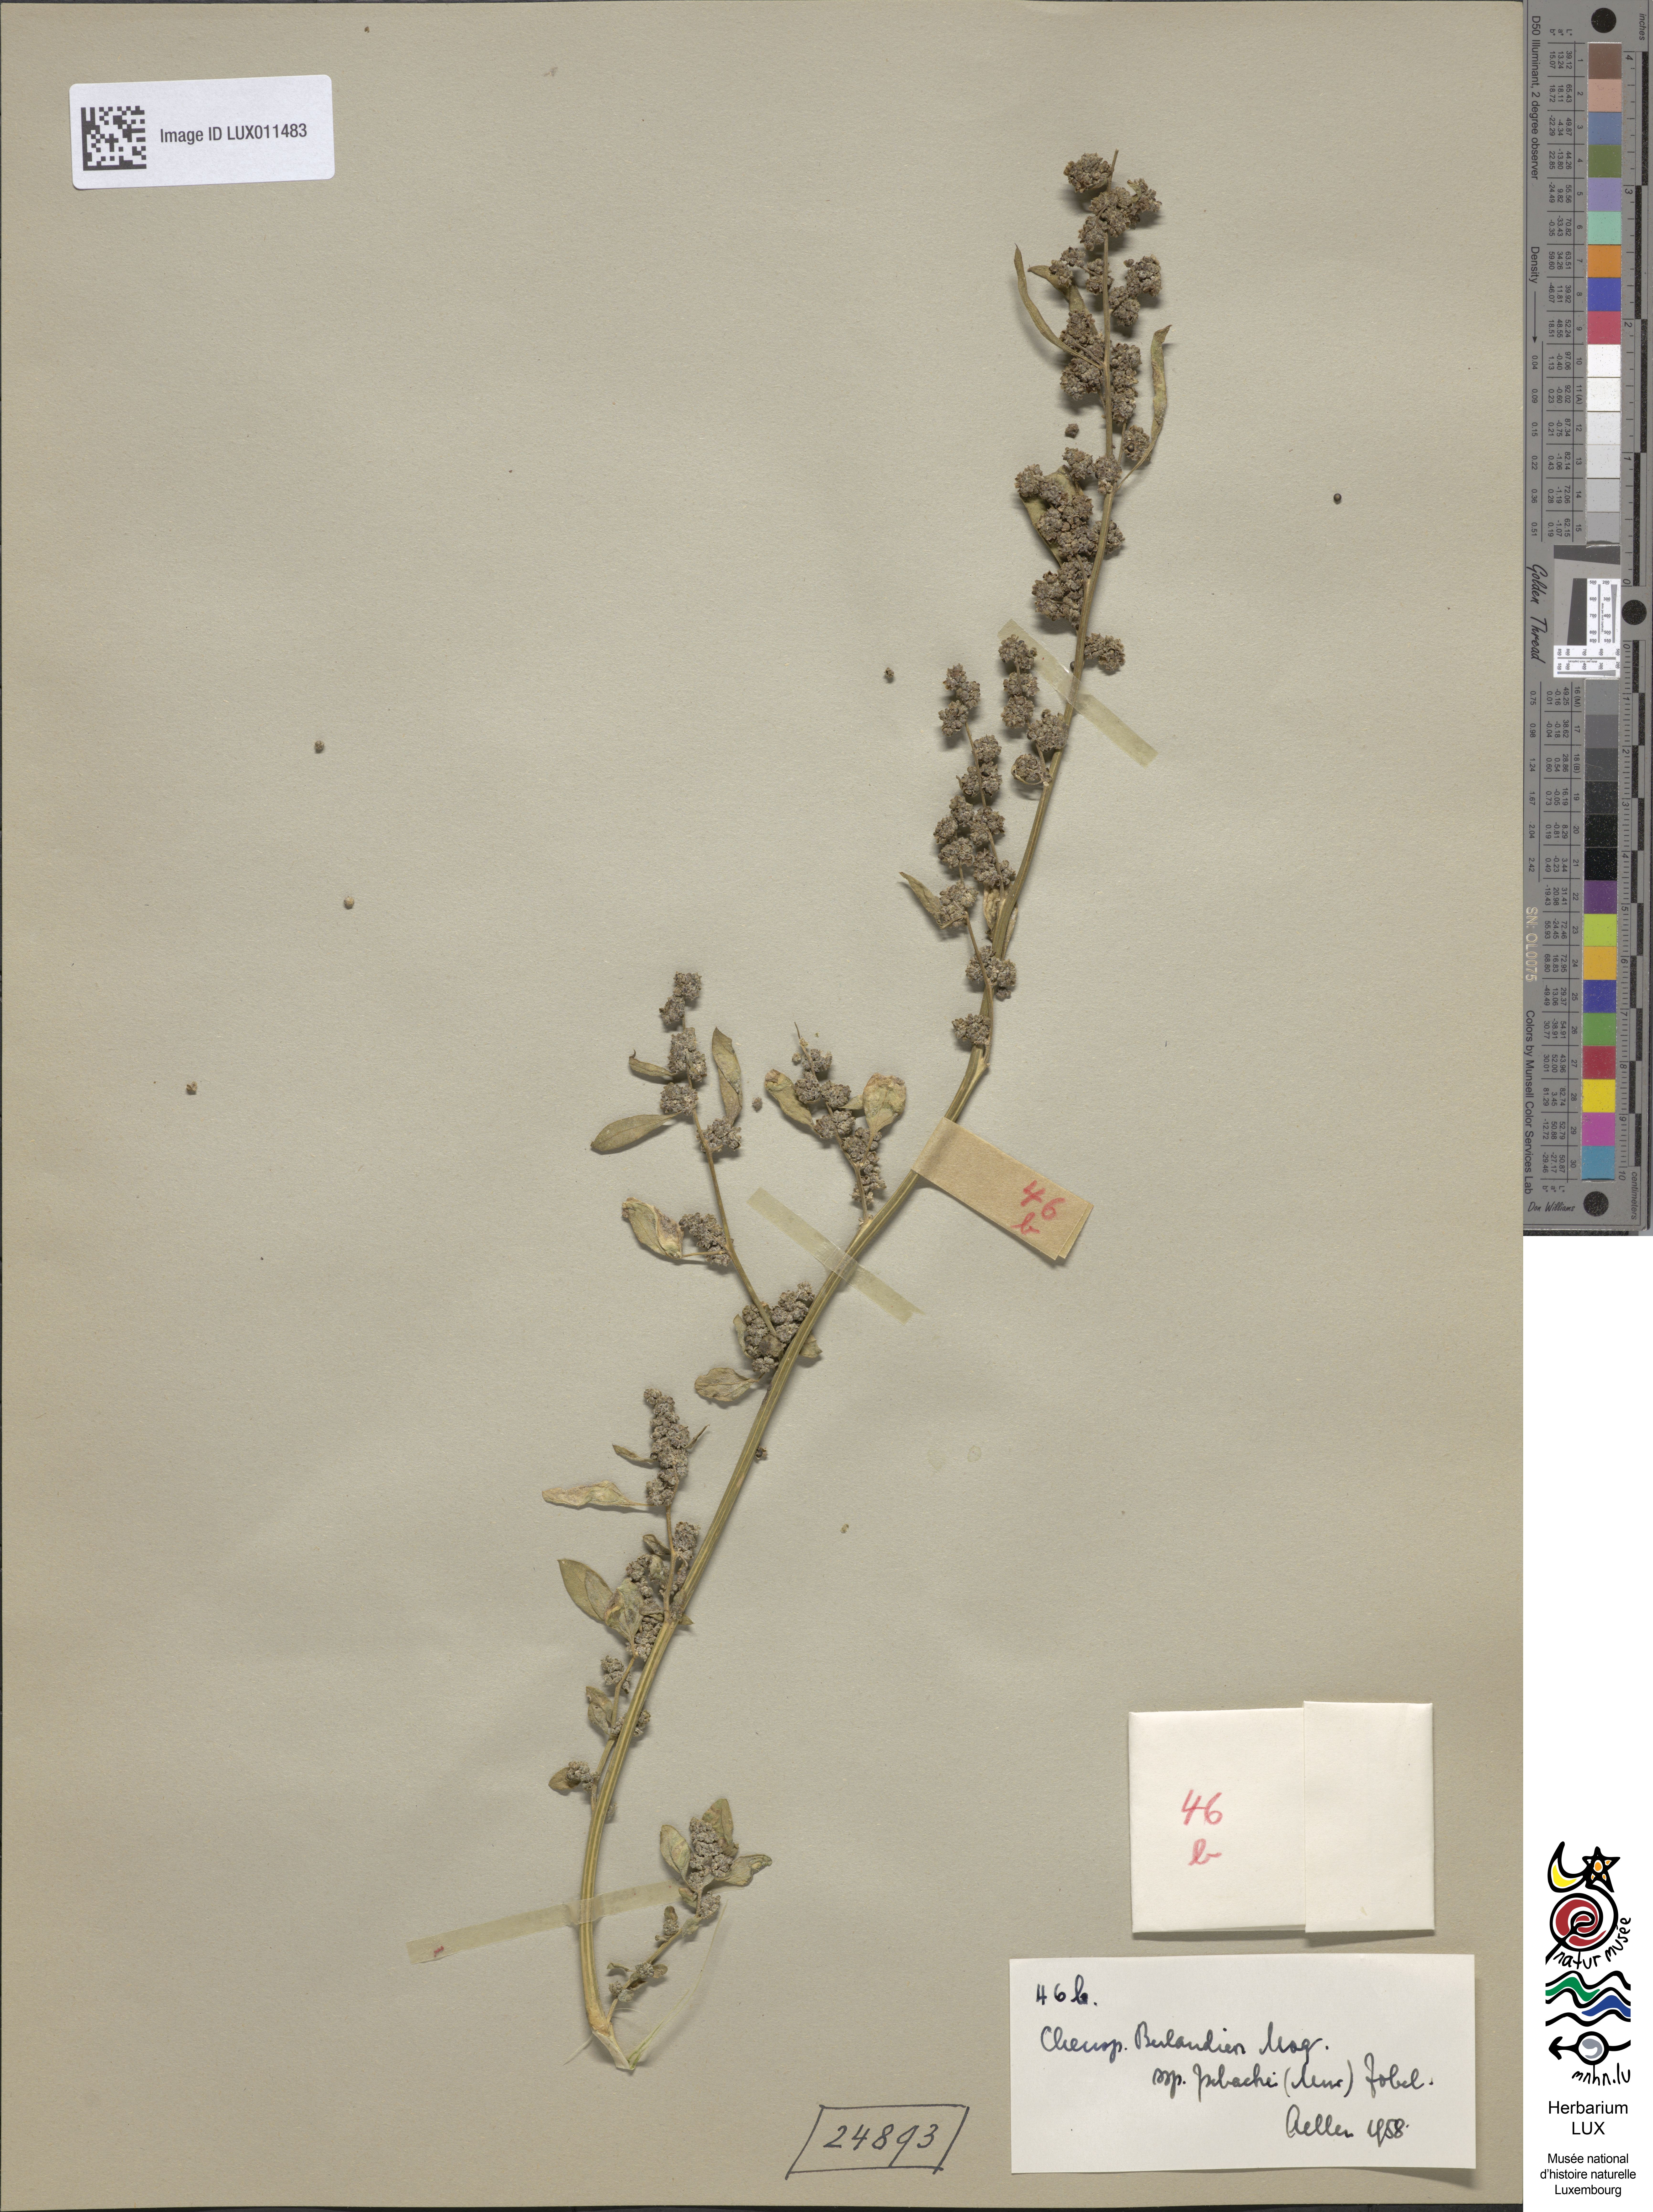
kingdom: Plantae
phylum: Tracheophyta
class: Magnoliopsida
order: Caryophyllales
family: Amaranthaceae
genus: Chenopodium
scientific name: Chenopodium berlandieri
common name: Pit-seed goosefoot
